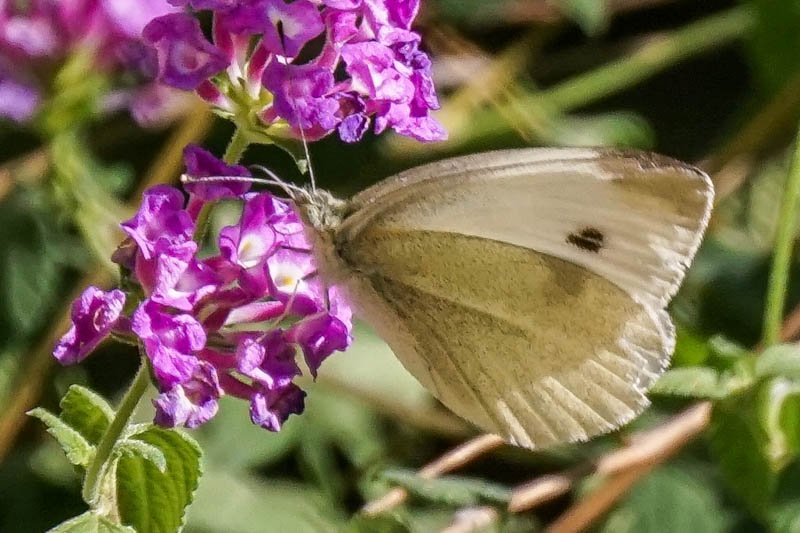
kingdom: Animalia
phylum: Arthropoda
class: Insecta
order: Lepidoptera
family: Pieridae
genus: Pieris
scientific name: Pieris rapae
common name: Cabbage White
